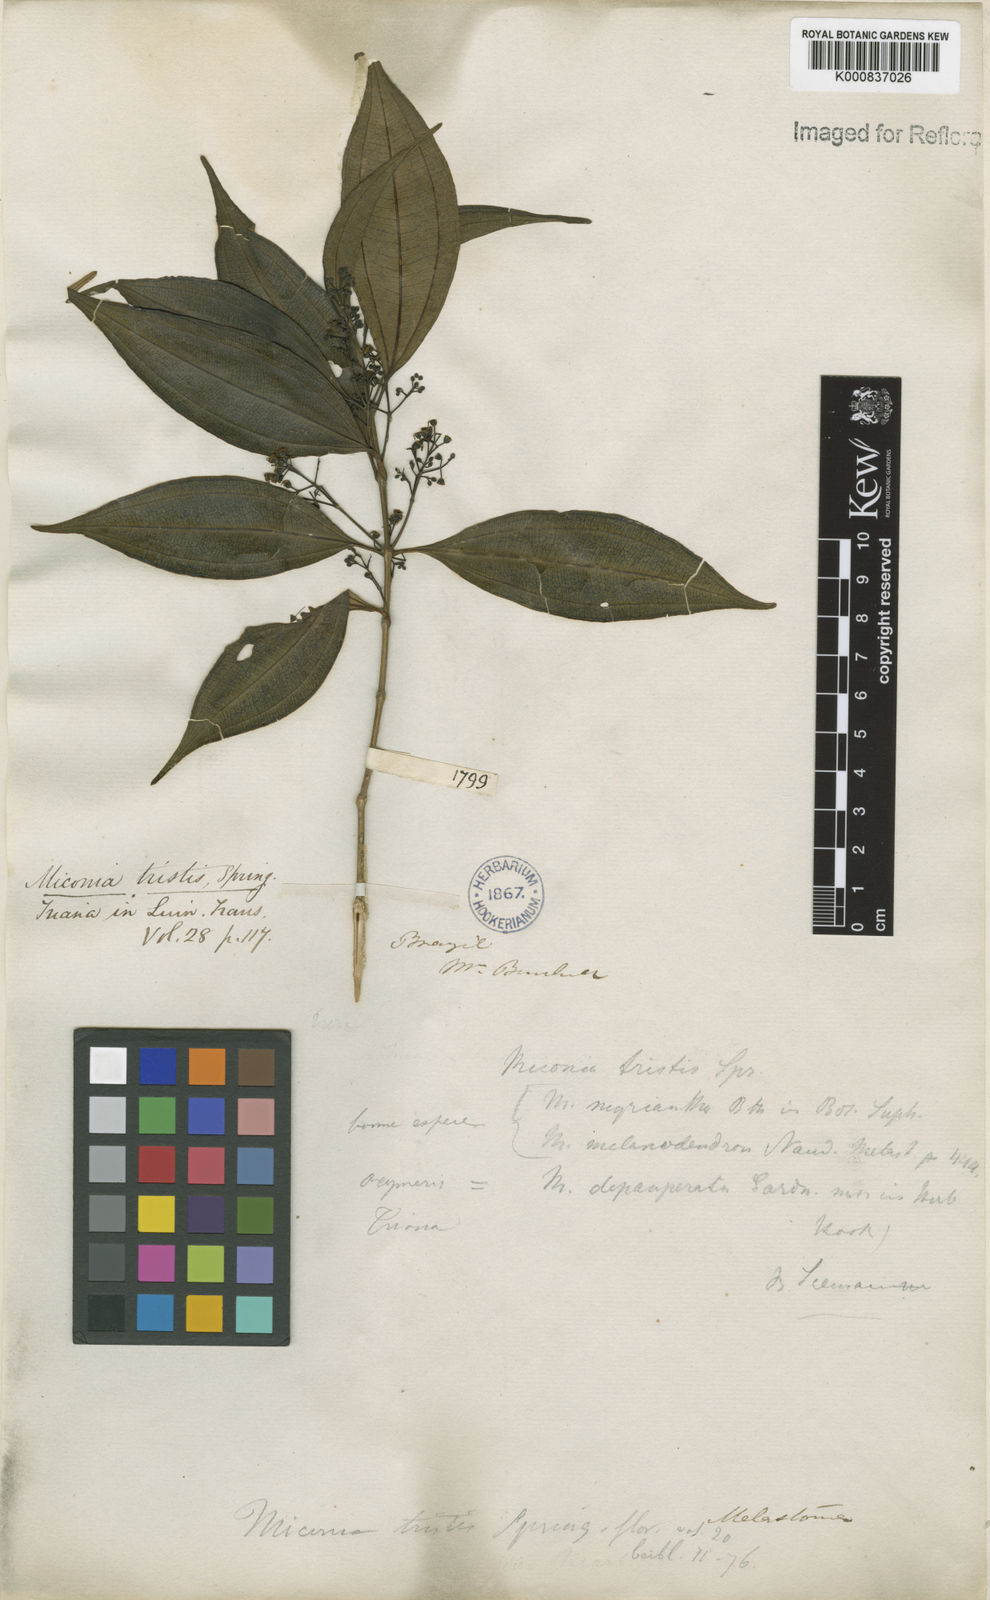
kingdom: Plantae
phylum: Tracheophyta
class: Magnoliopsida
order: Myrtales
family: Melastomataceae
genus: Miconia
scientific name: Miconia
